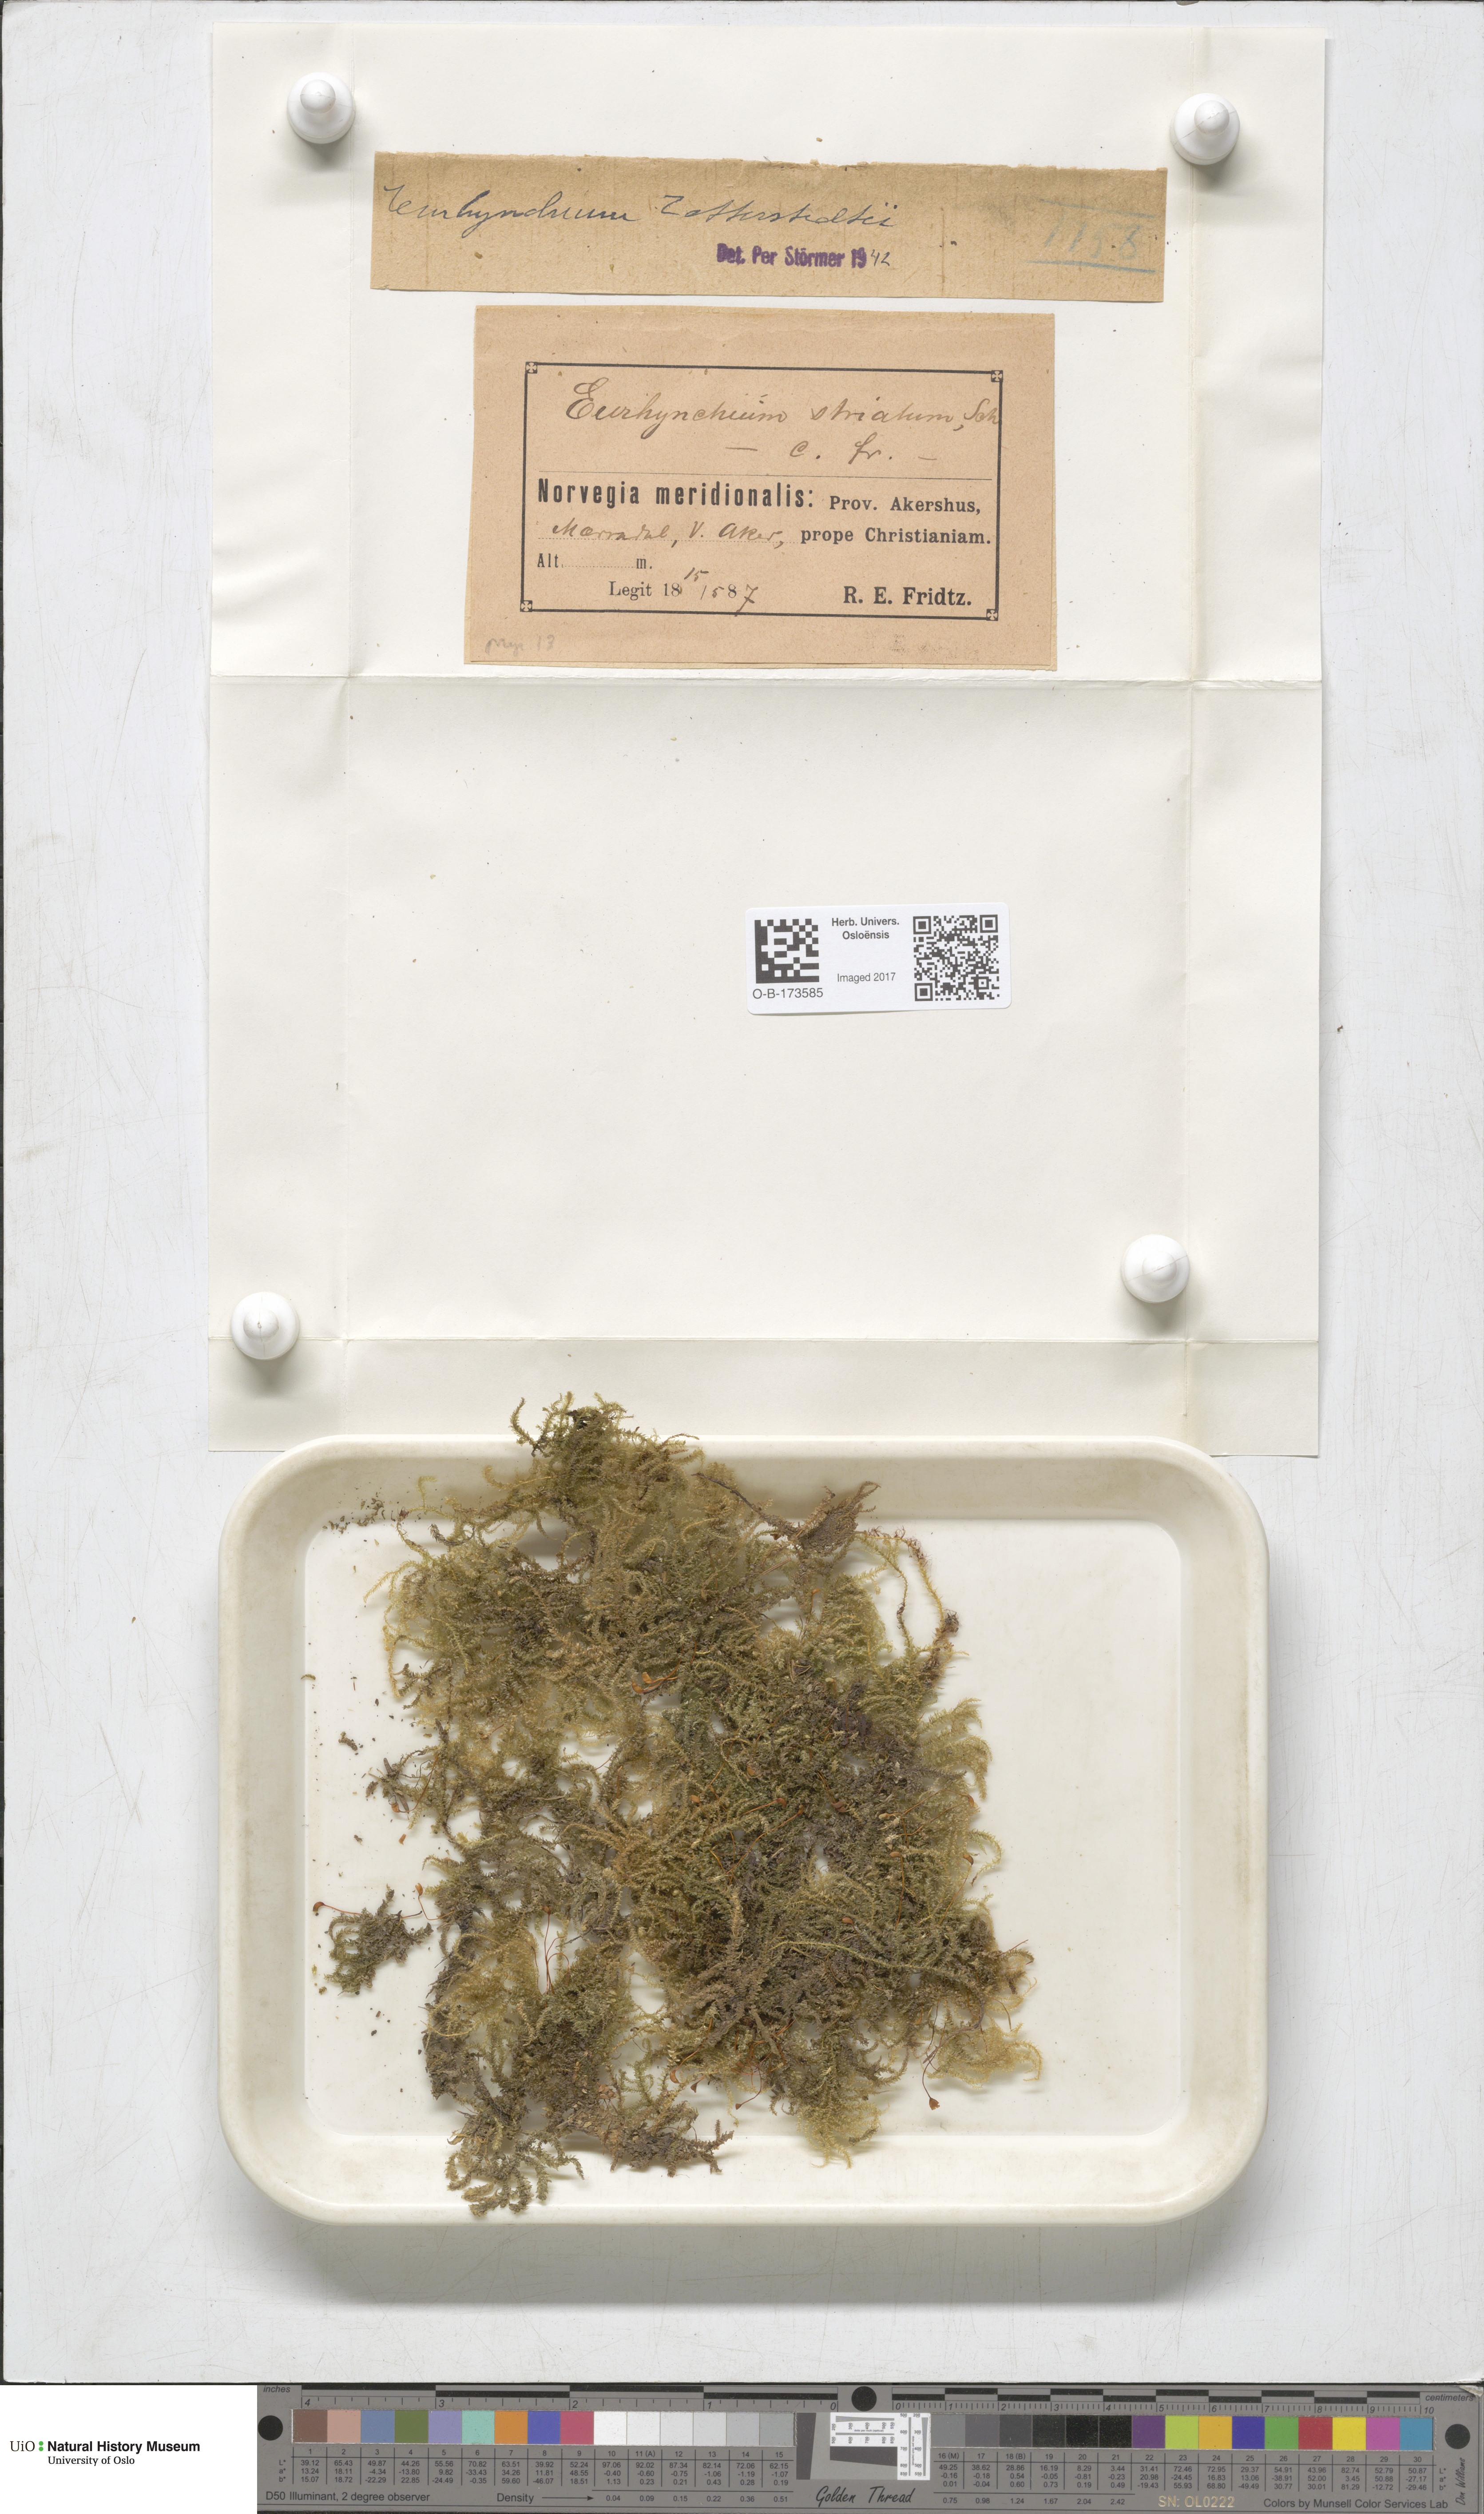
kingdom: Plantae
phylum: Bryophyta
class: Bryopsida
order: Hypnales
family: Brachytheciaceae
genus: Eurhynchium
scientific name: Eurhynchium angustirete
